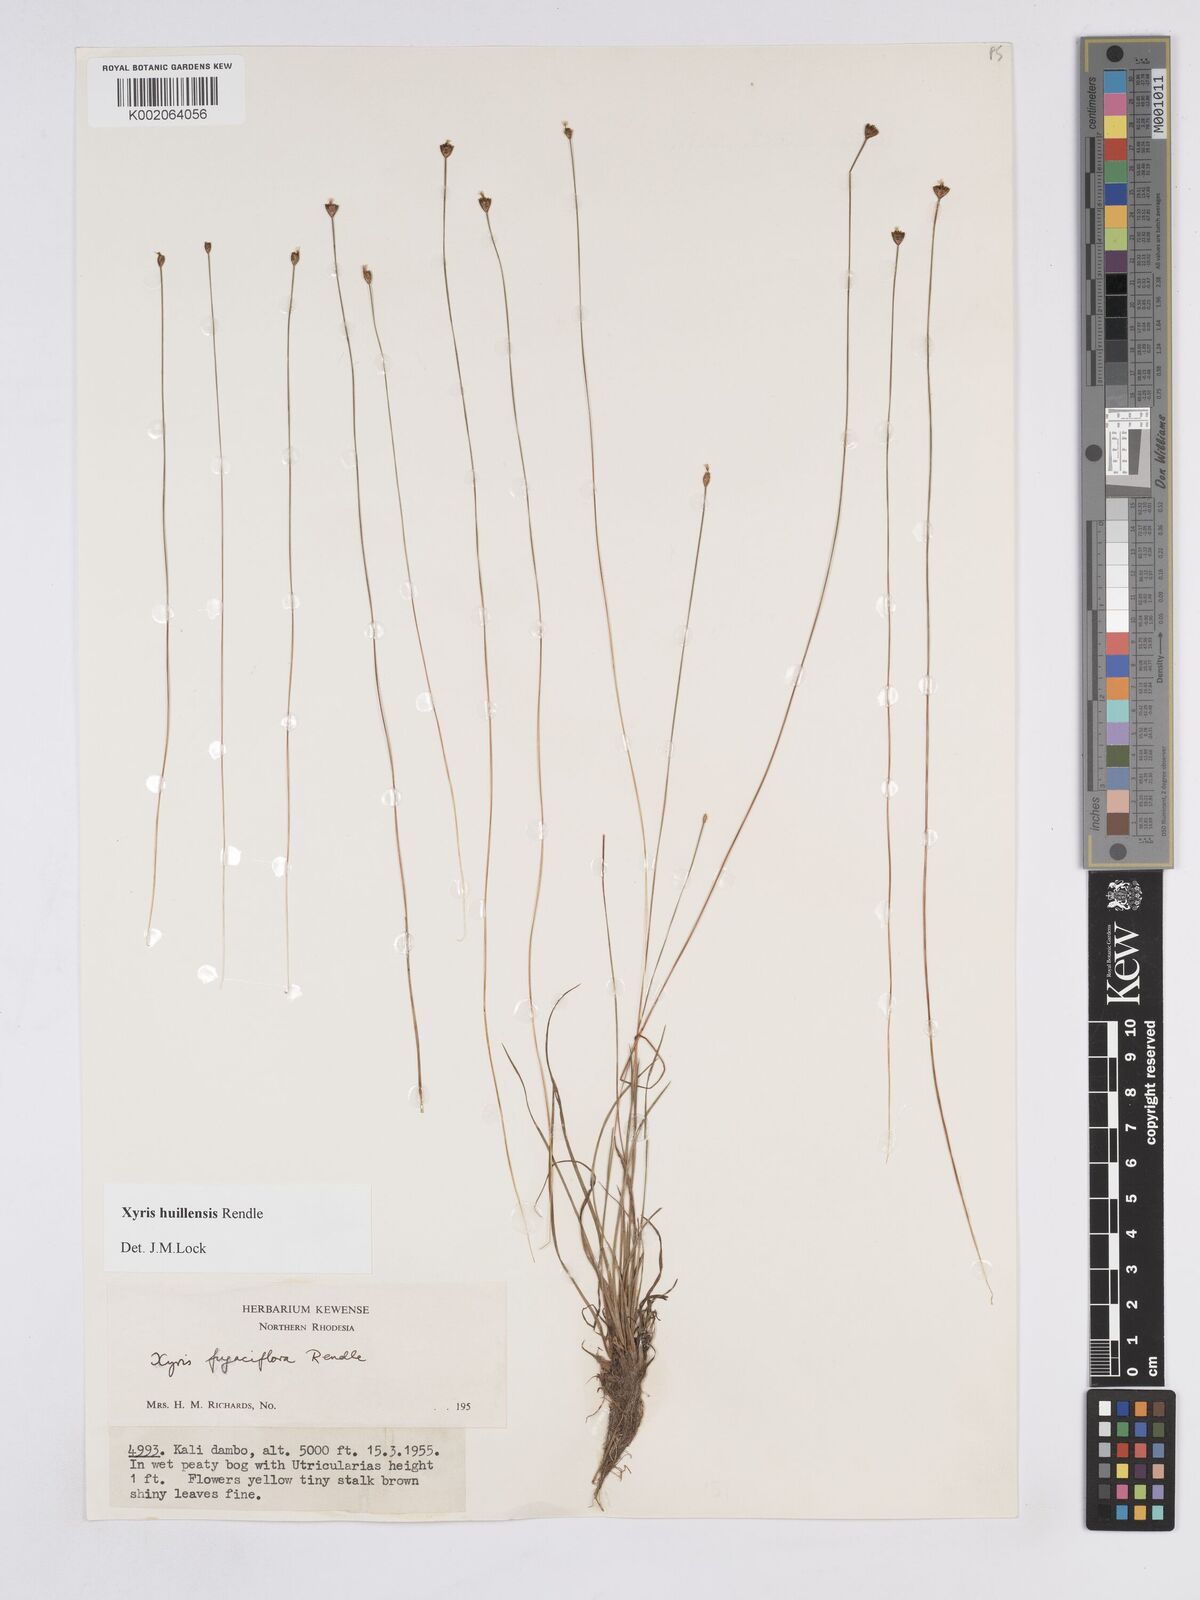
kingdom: Plantae
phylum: Tracheophyta
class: Liliopsida
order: Poales
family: Xyridaceae
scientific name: Xyridaceae
